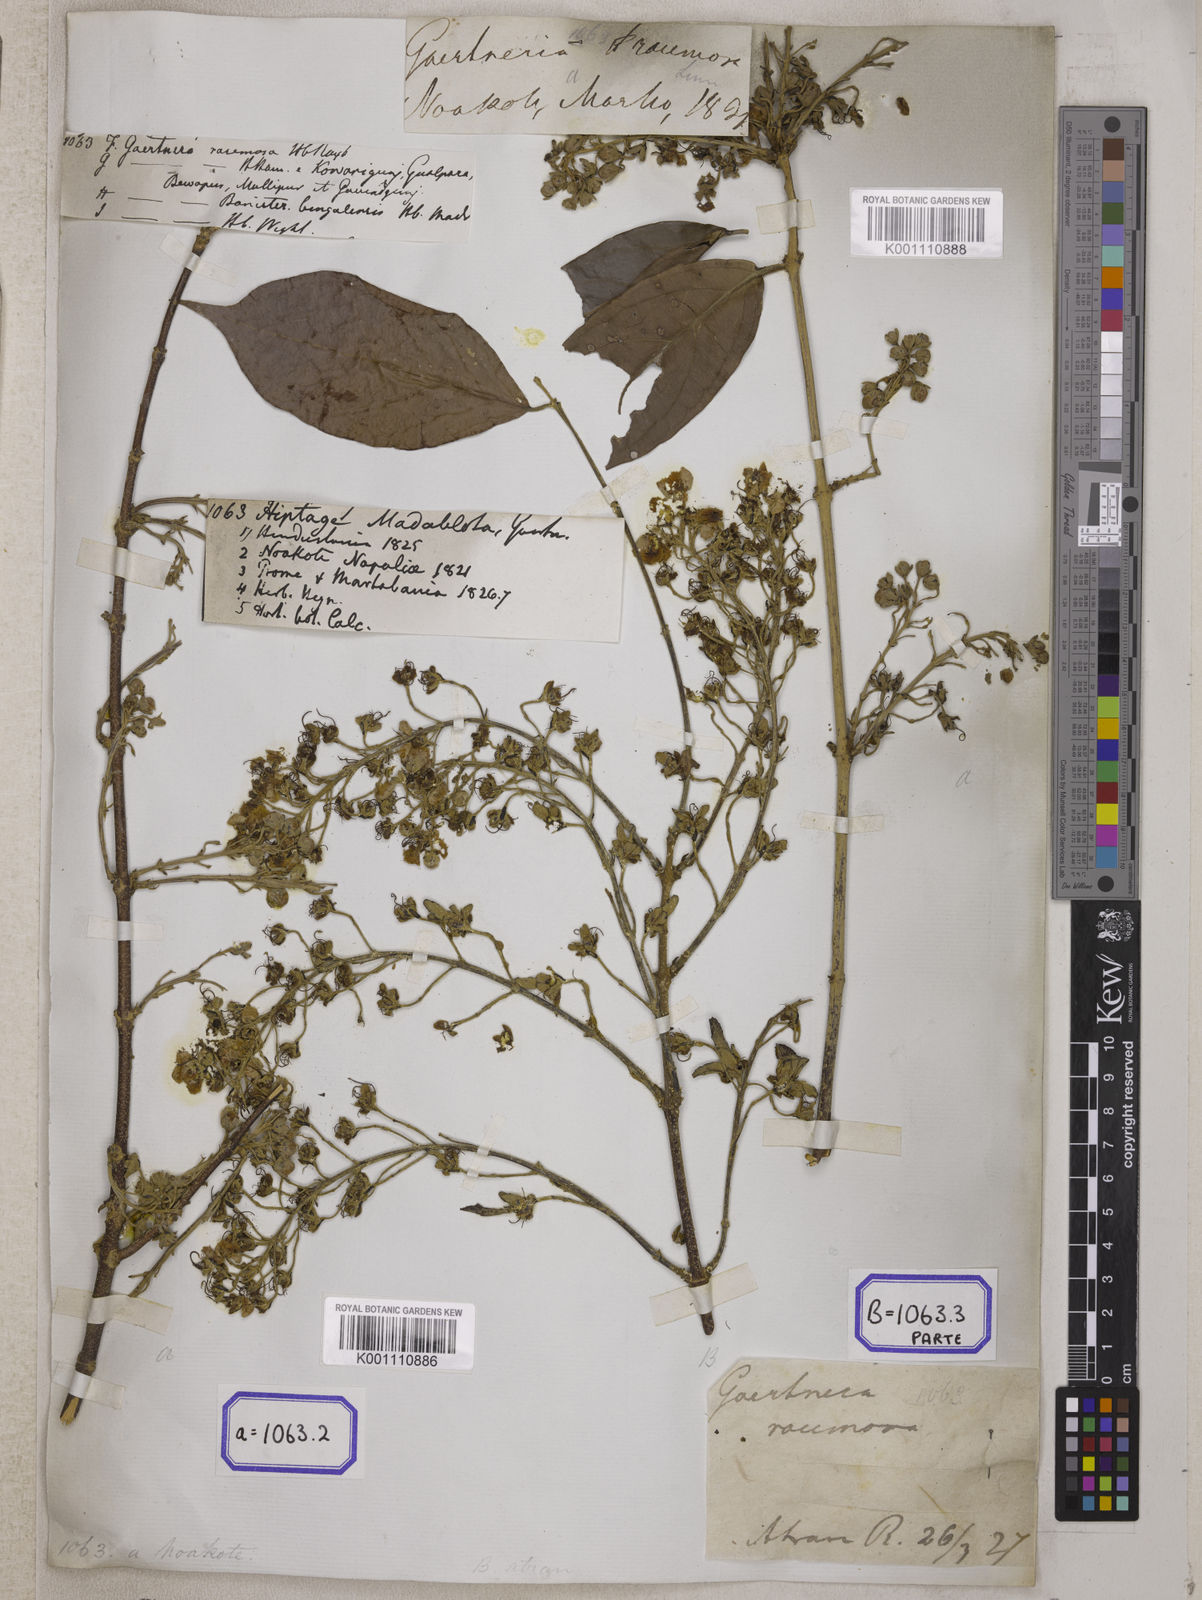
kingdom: Plantae
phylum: Tracheophyta
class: Magnoliopsida
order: Malpighiales
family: Malpighiaceae
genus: Hiptage
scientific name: Hiptage benghalensis
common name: Hiptage
